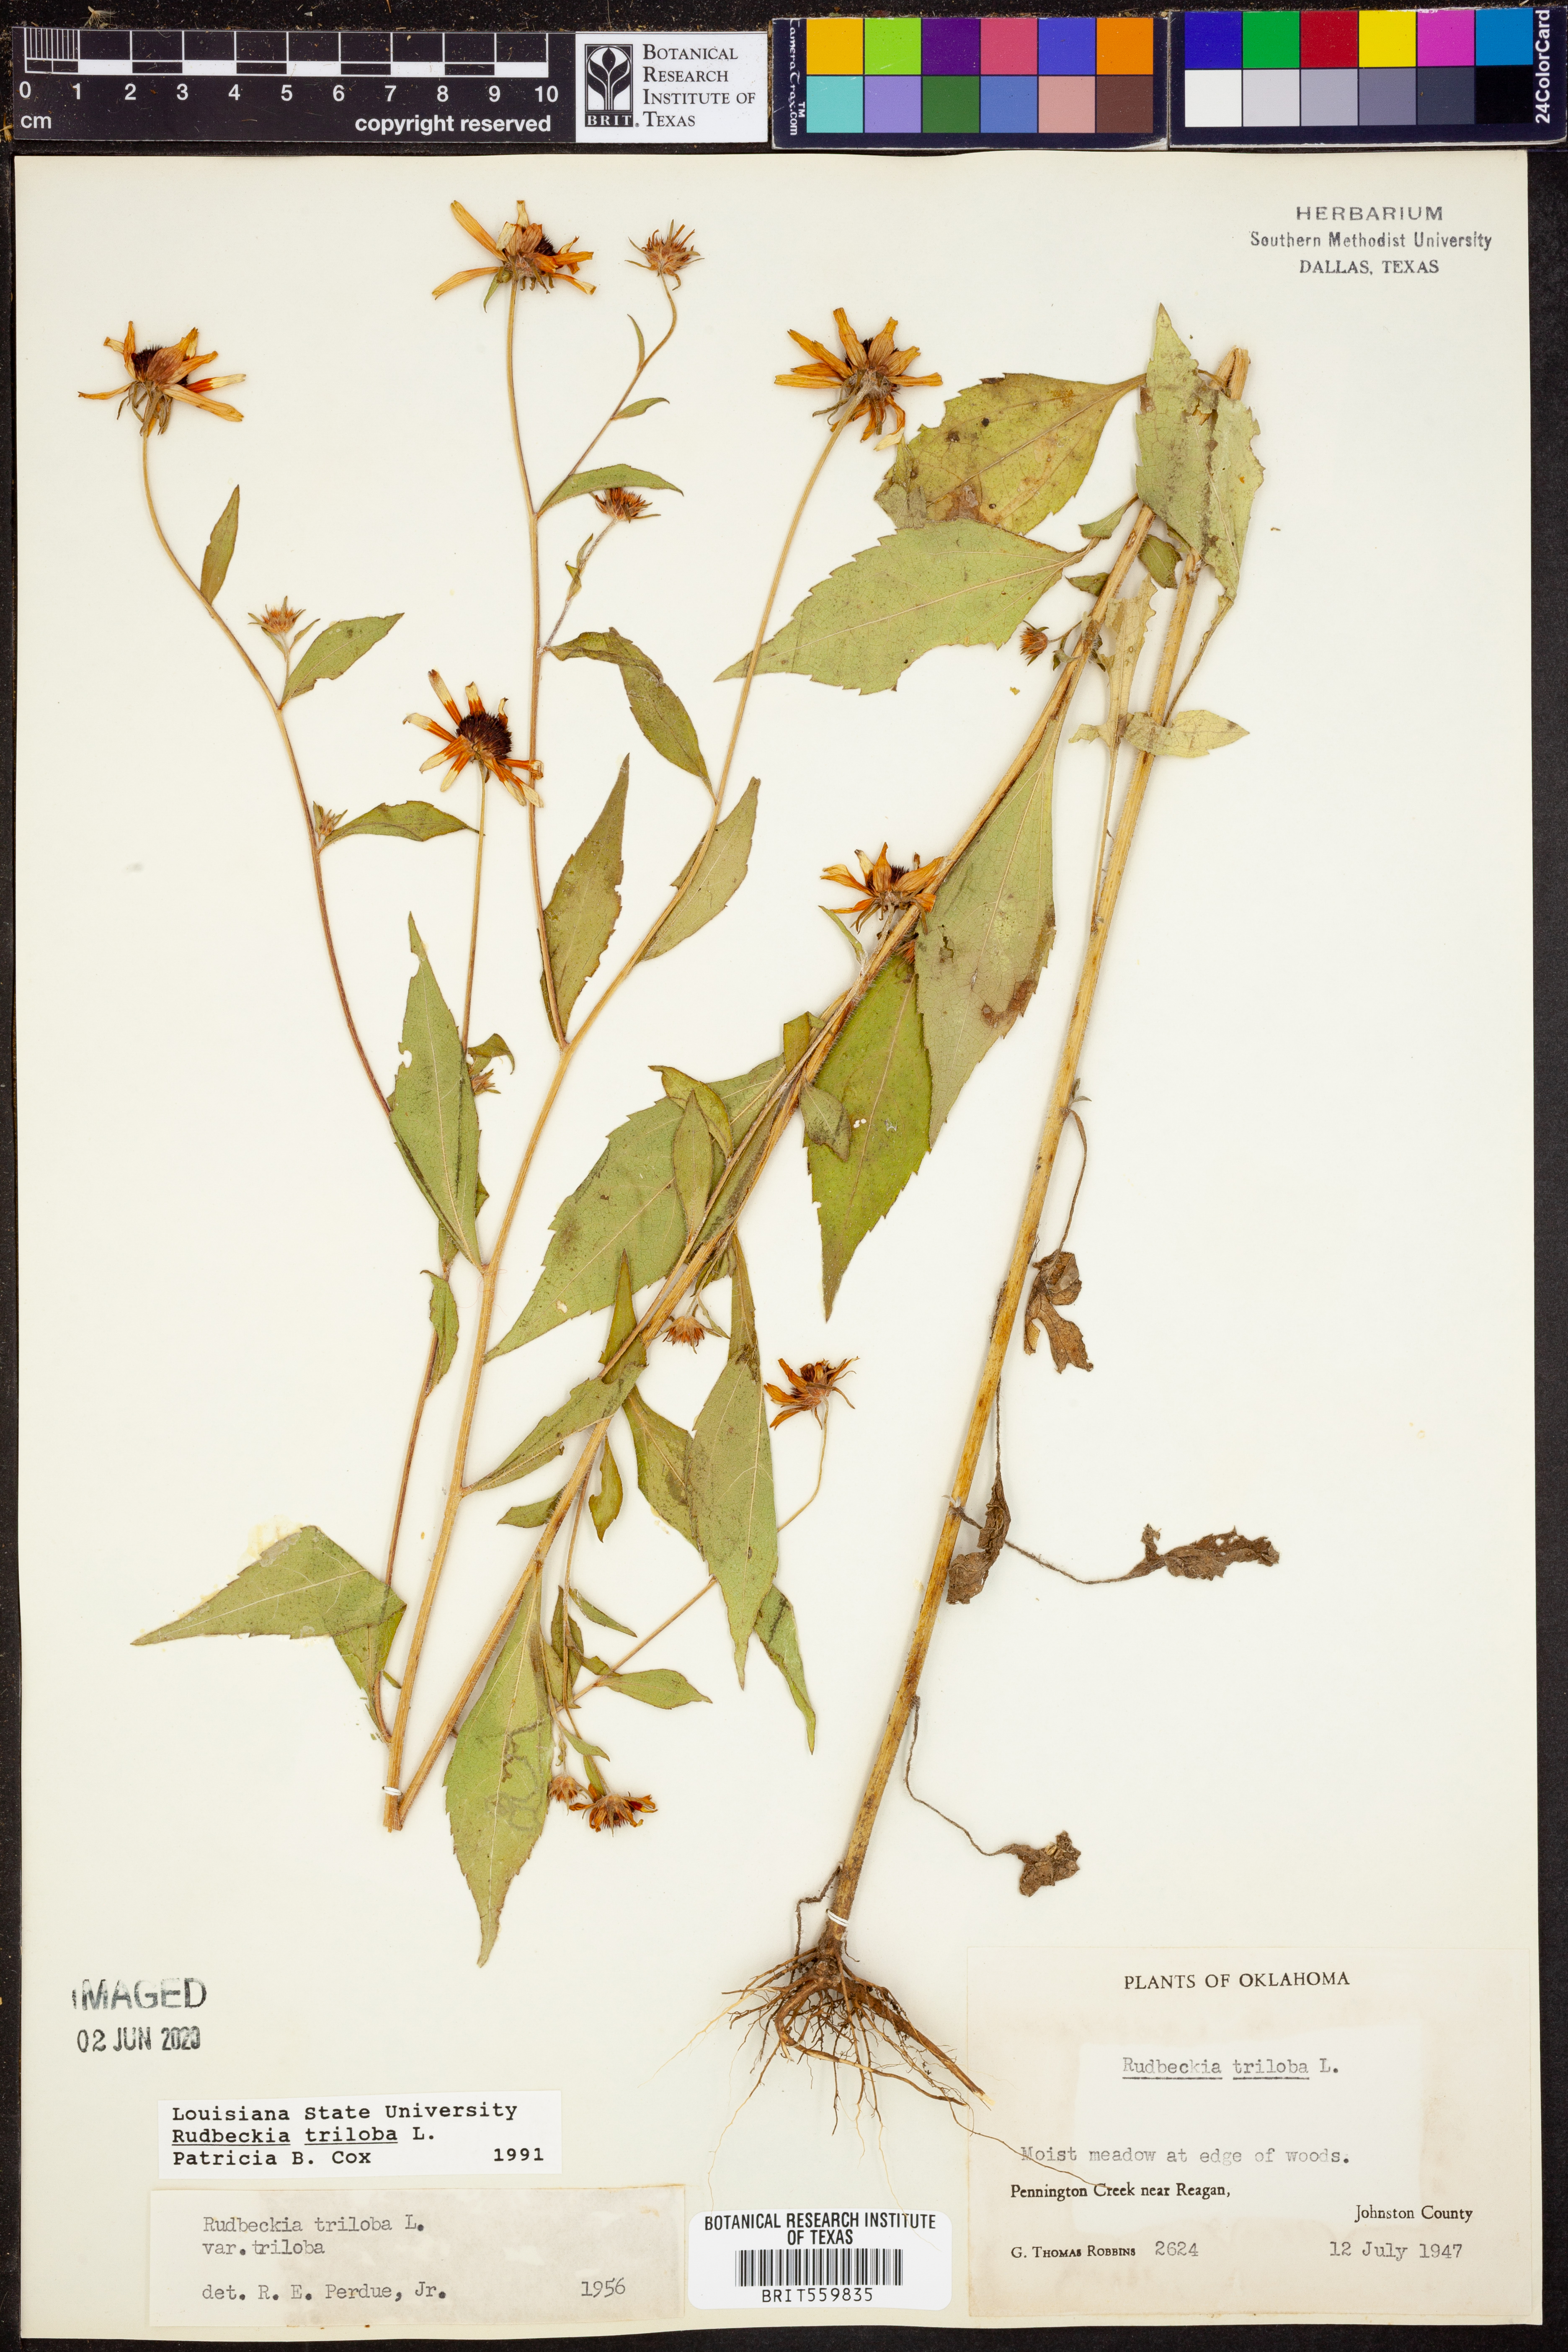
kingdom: Plantae
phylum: Tracheophyta
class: Magnoliopsida
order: Asterales
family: Asteraceae
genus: Rudbeckia
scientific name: Rudbeckia triloba
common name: Thin-leaved coneflower
